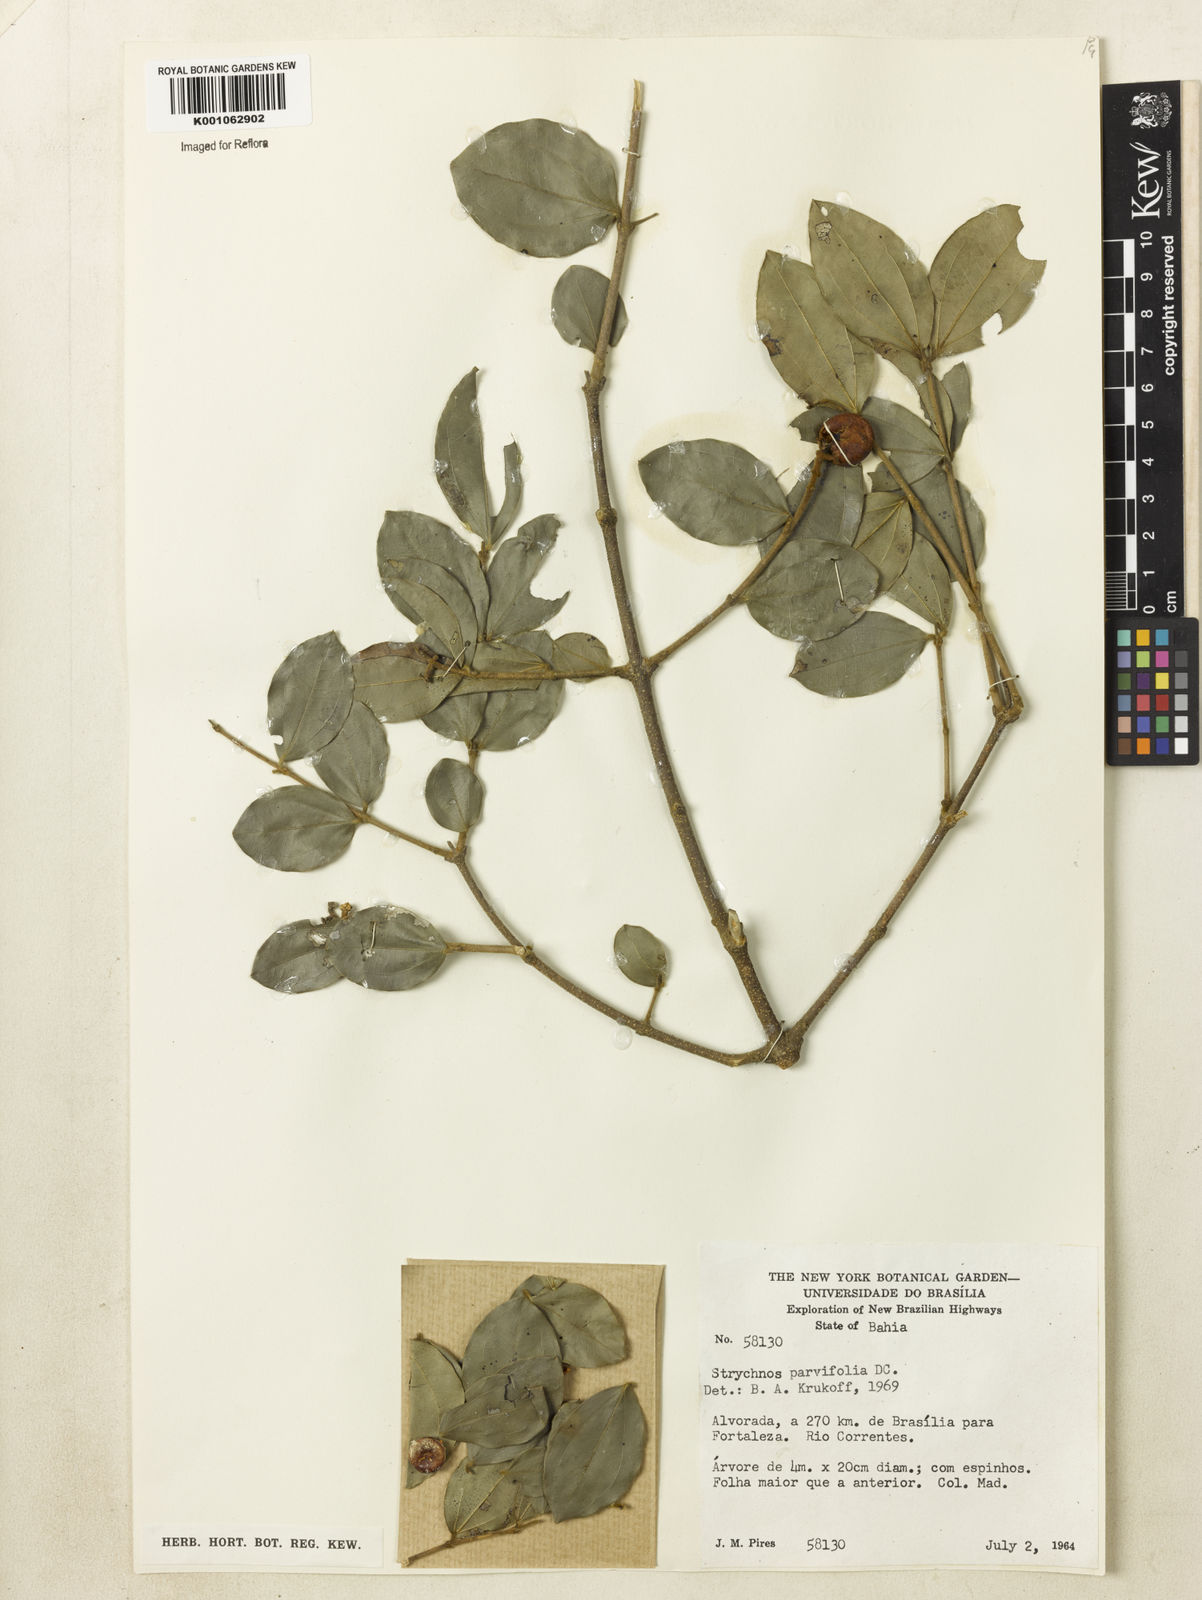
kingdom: Plantae
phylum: Tracheophyta
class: Magnoliopsida
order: Gentianales
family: Loganiaceae
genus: Strychnos
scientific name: Strychnos parvifolia
